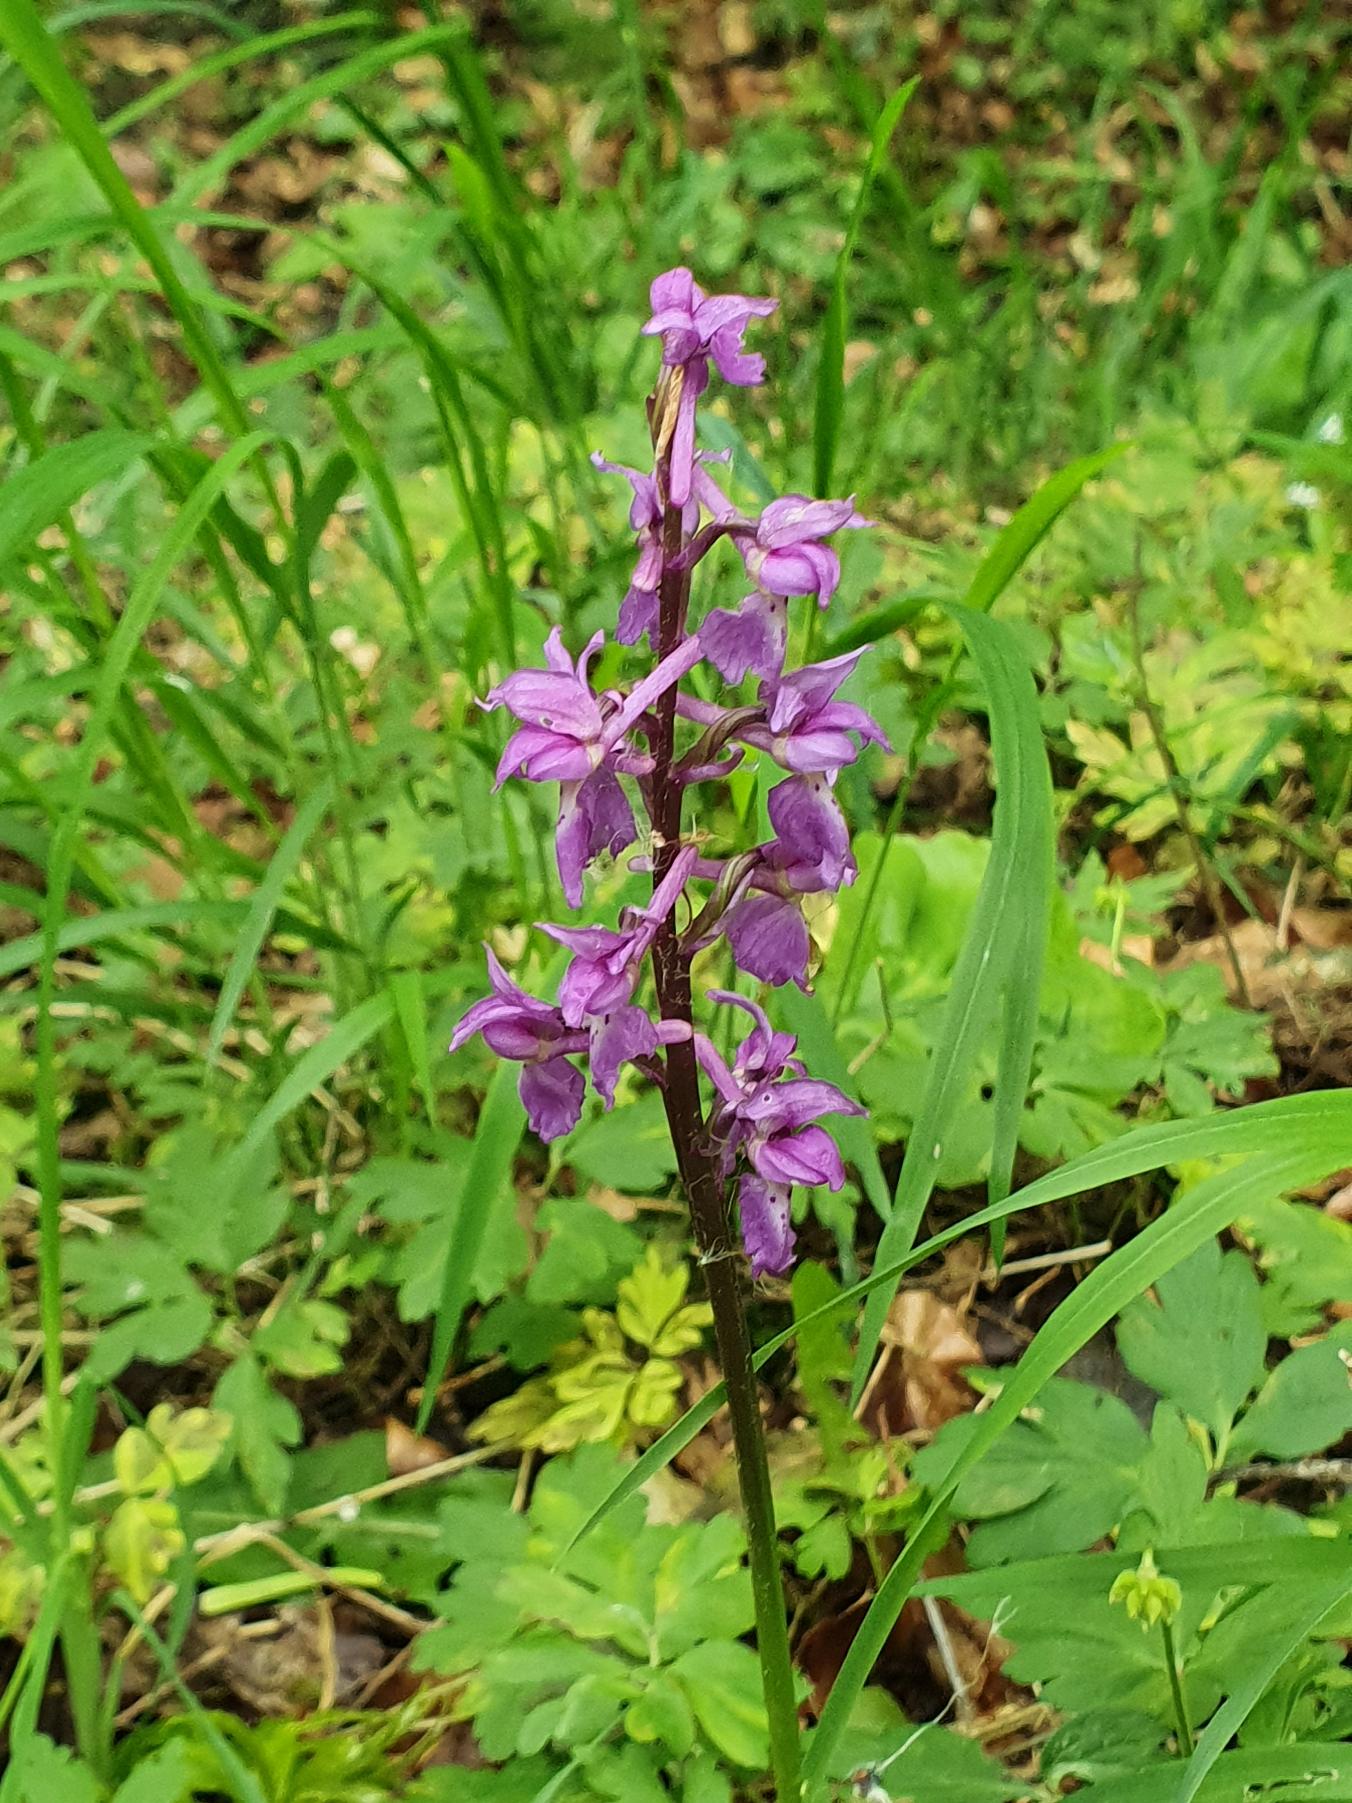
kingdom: Plantae
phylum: Tracheophyta
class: Liliopsida
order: Asparagales
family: Orchidaceae
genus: Orchis
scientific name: Orchis mascula
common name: Tyndakset gøgeurt
